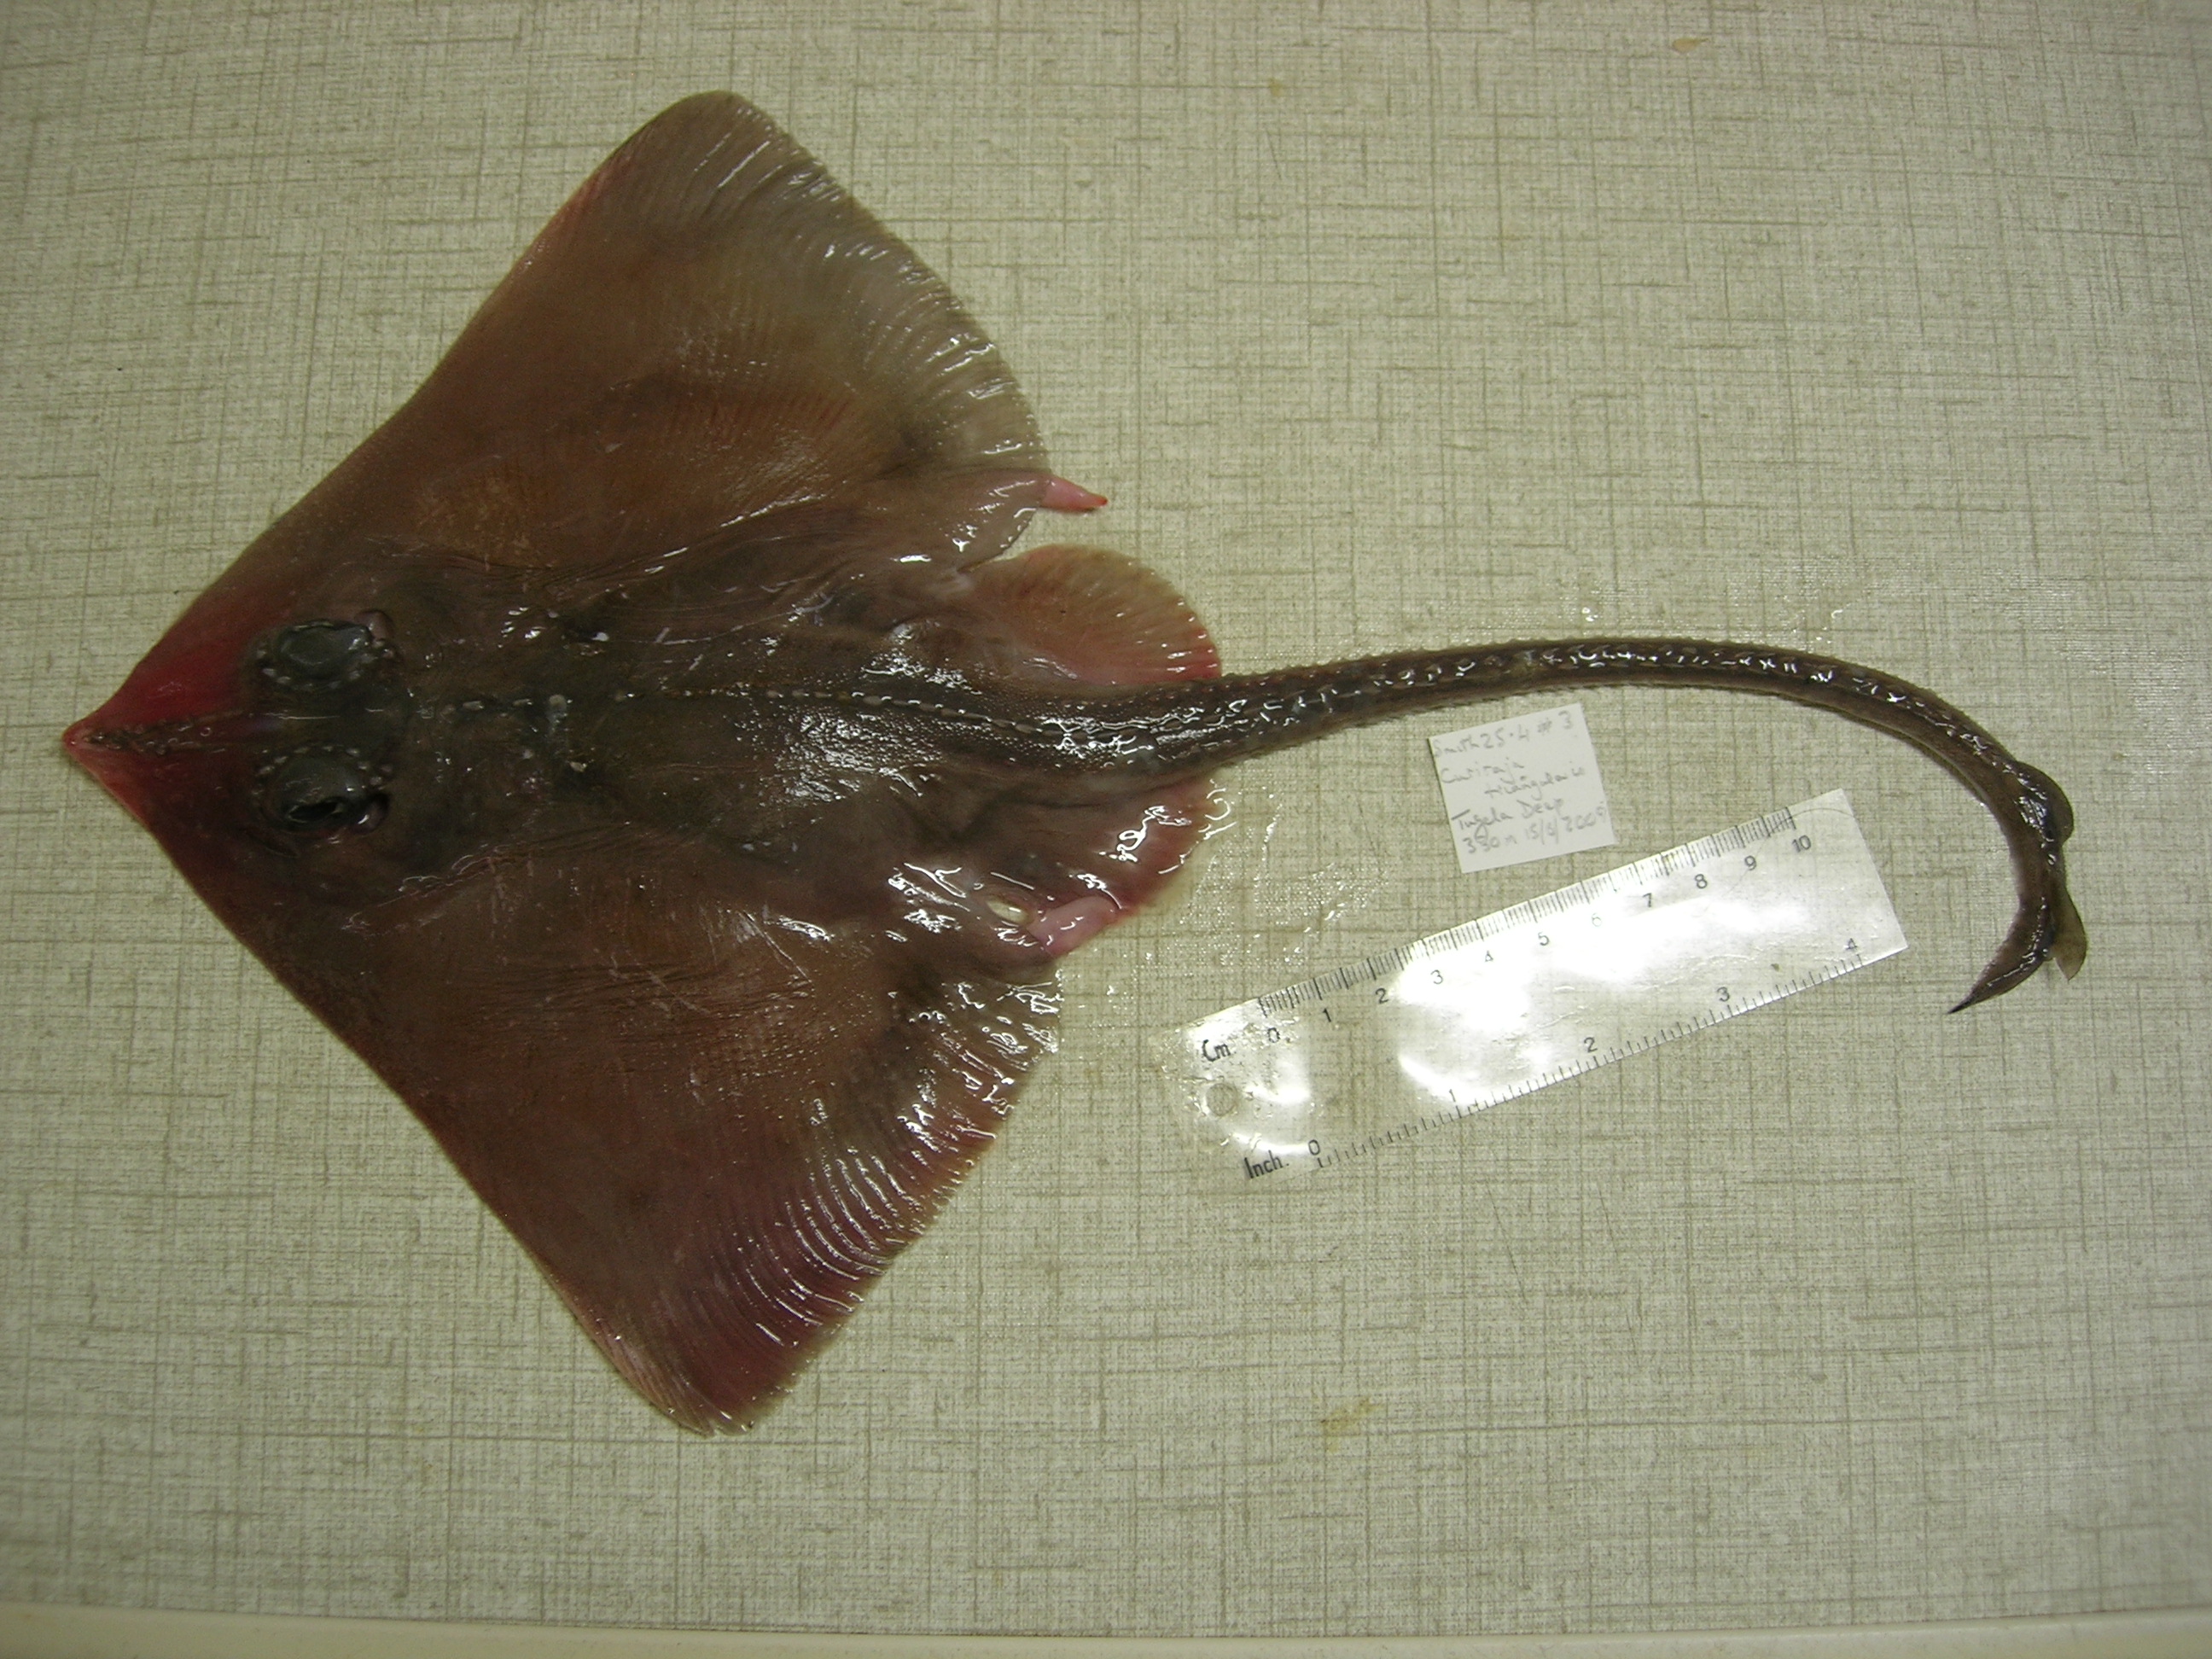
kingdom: Animalia
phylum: Chordata
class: Elasmobranchii
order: Rajiformes
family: Rajidae
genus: Cruriraja
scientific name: Cruriraja parcomaculata
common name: Triangular legskate
